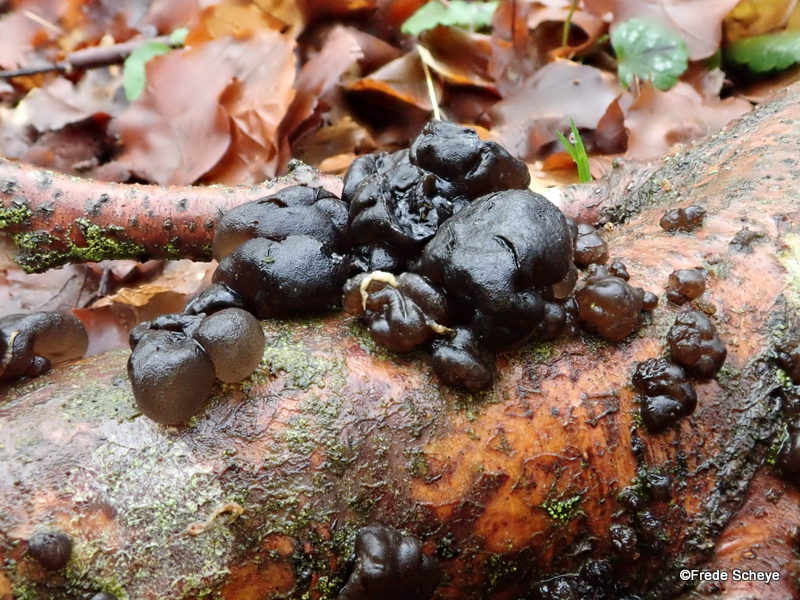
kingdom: Fungi
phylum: Basidiomycota
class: Agaricomycetes
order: Auriculariales
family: Auriculariaceae
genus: Exidia
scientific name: Exidia nigricans
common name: almindelig bævretop
